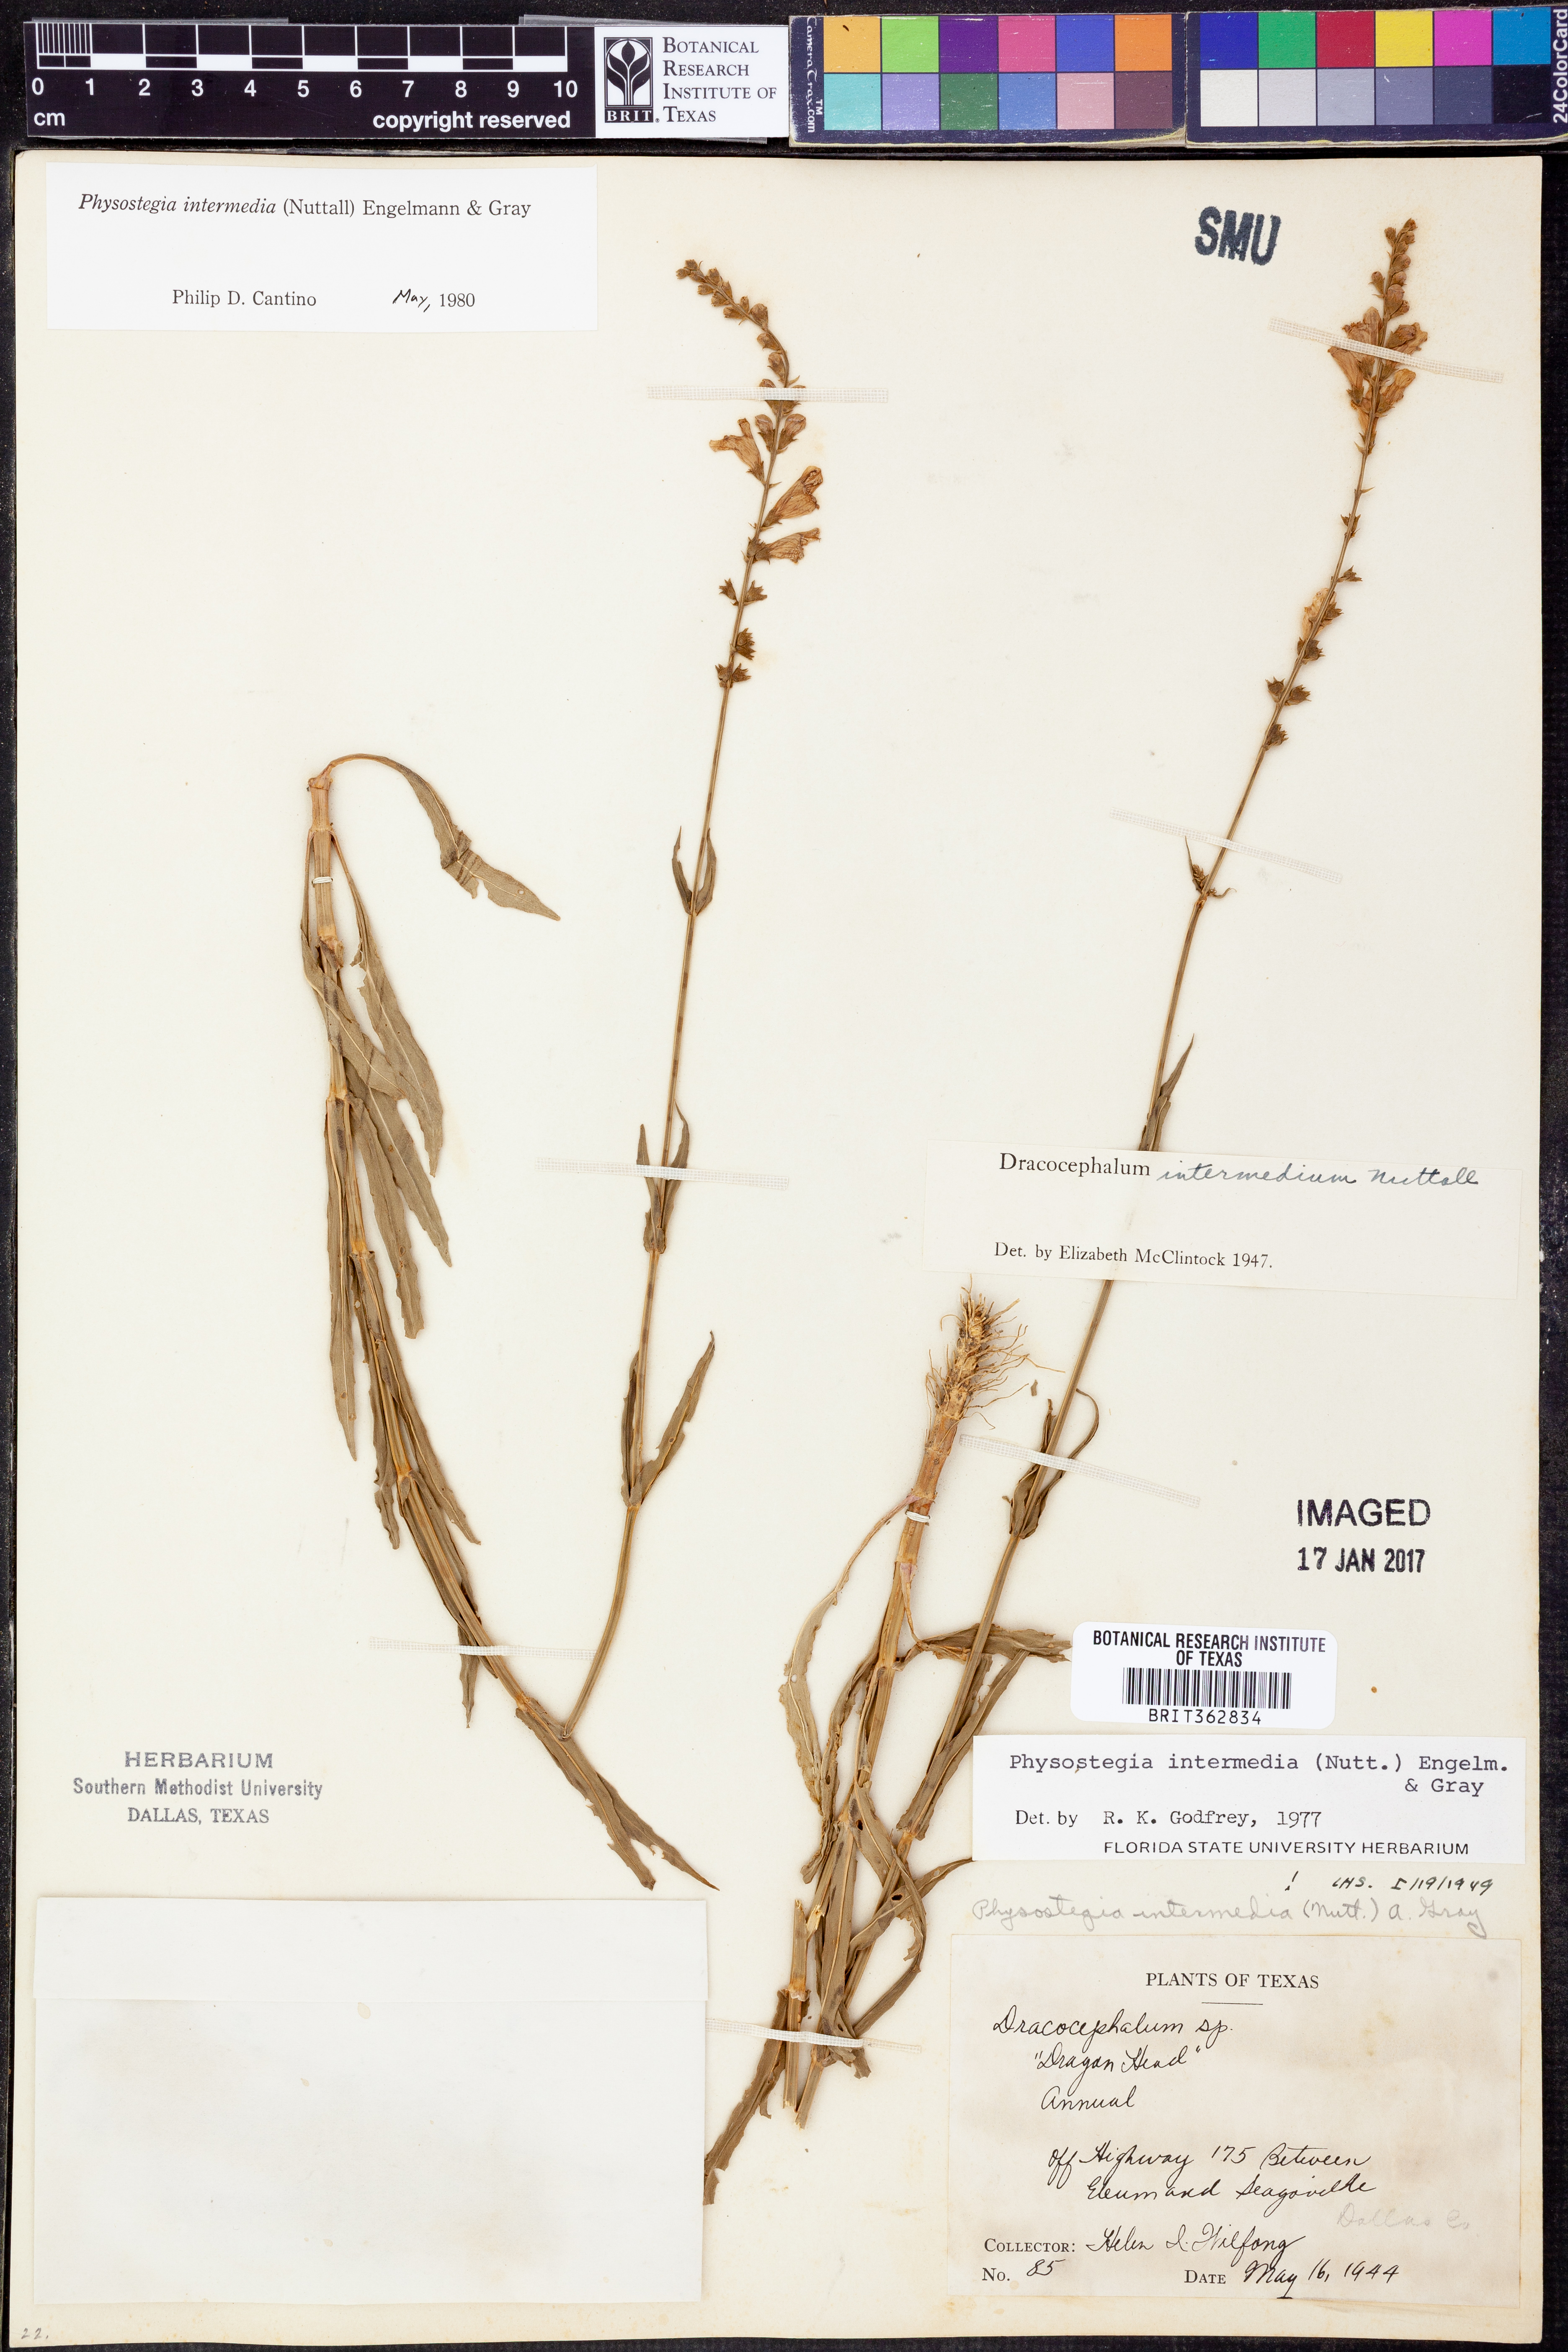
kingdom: Plantae
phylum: Tracheophyta
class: Magnoliopsida
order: Lamiales
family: Lamiaceae
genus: Physostegia
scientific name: Physostegia intermedia
